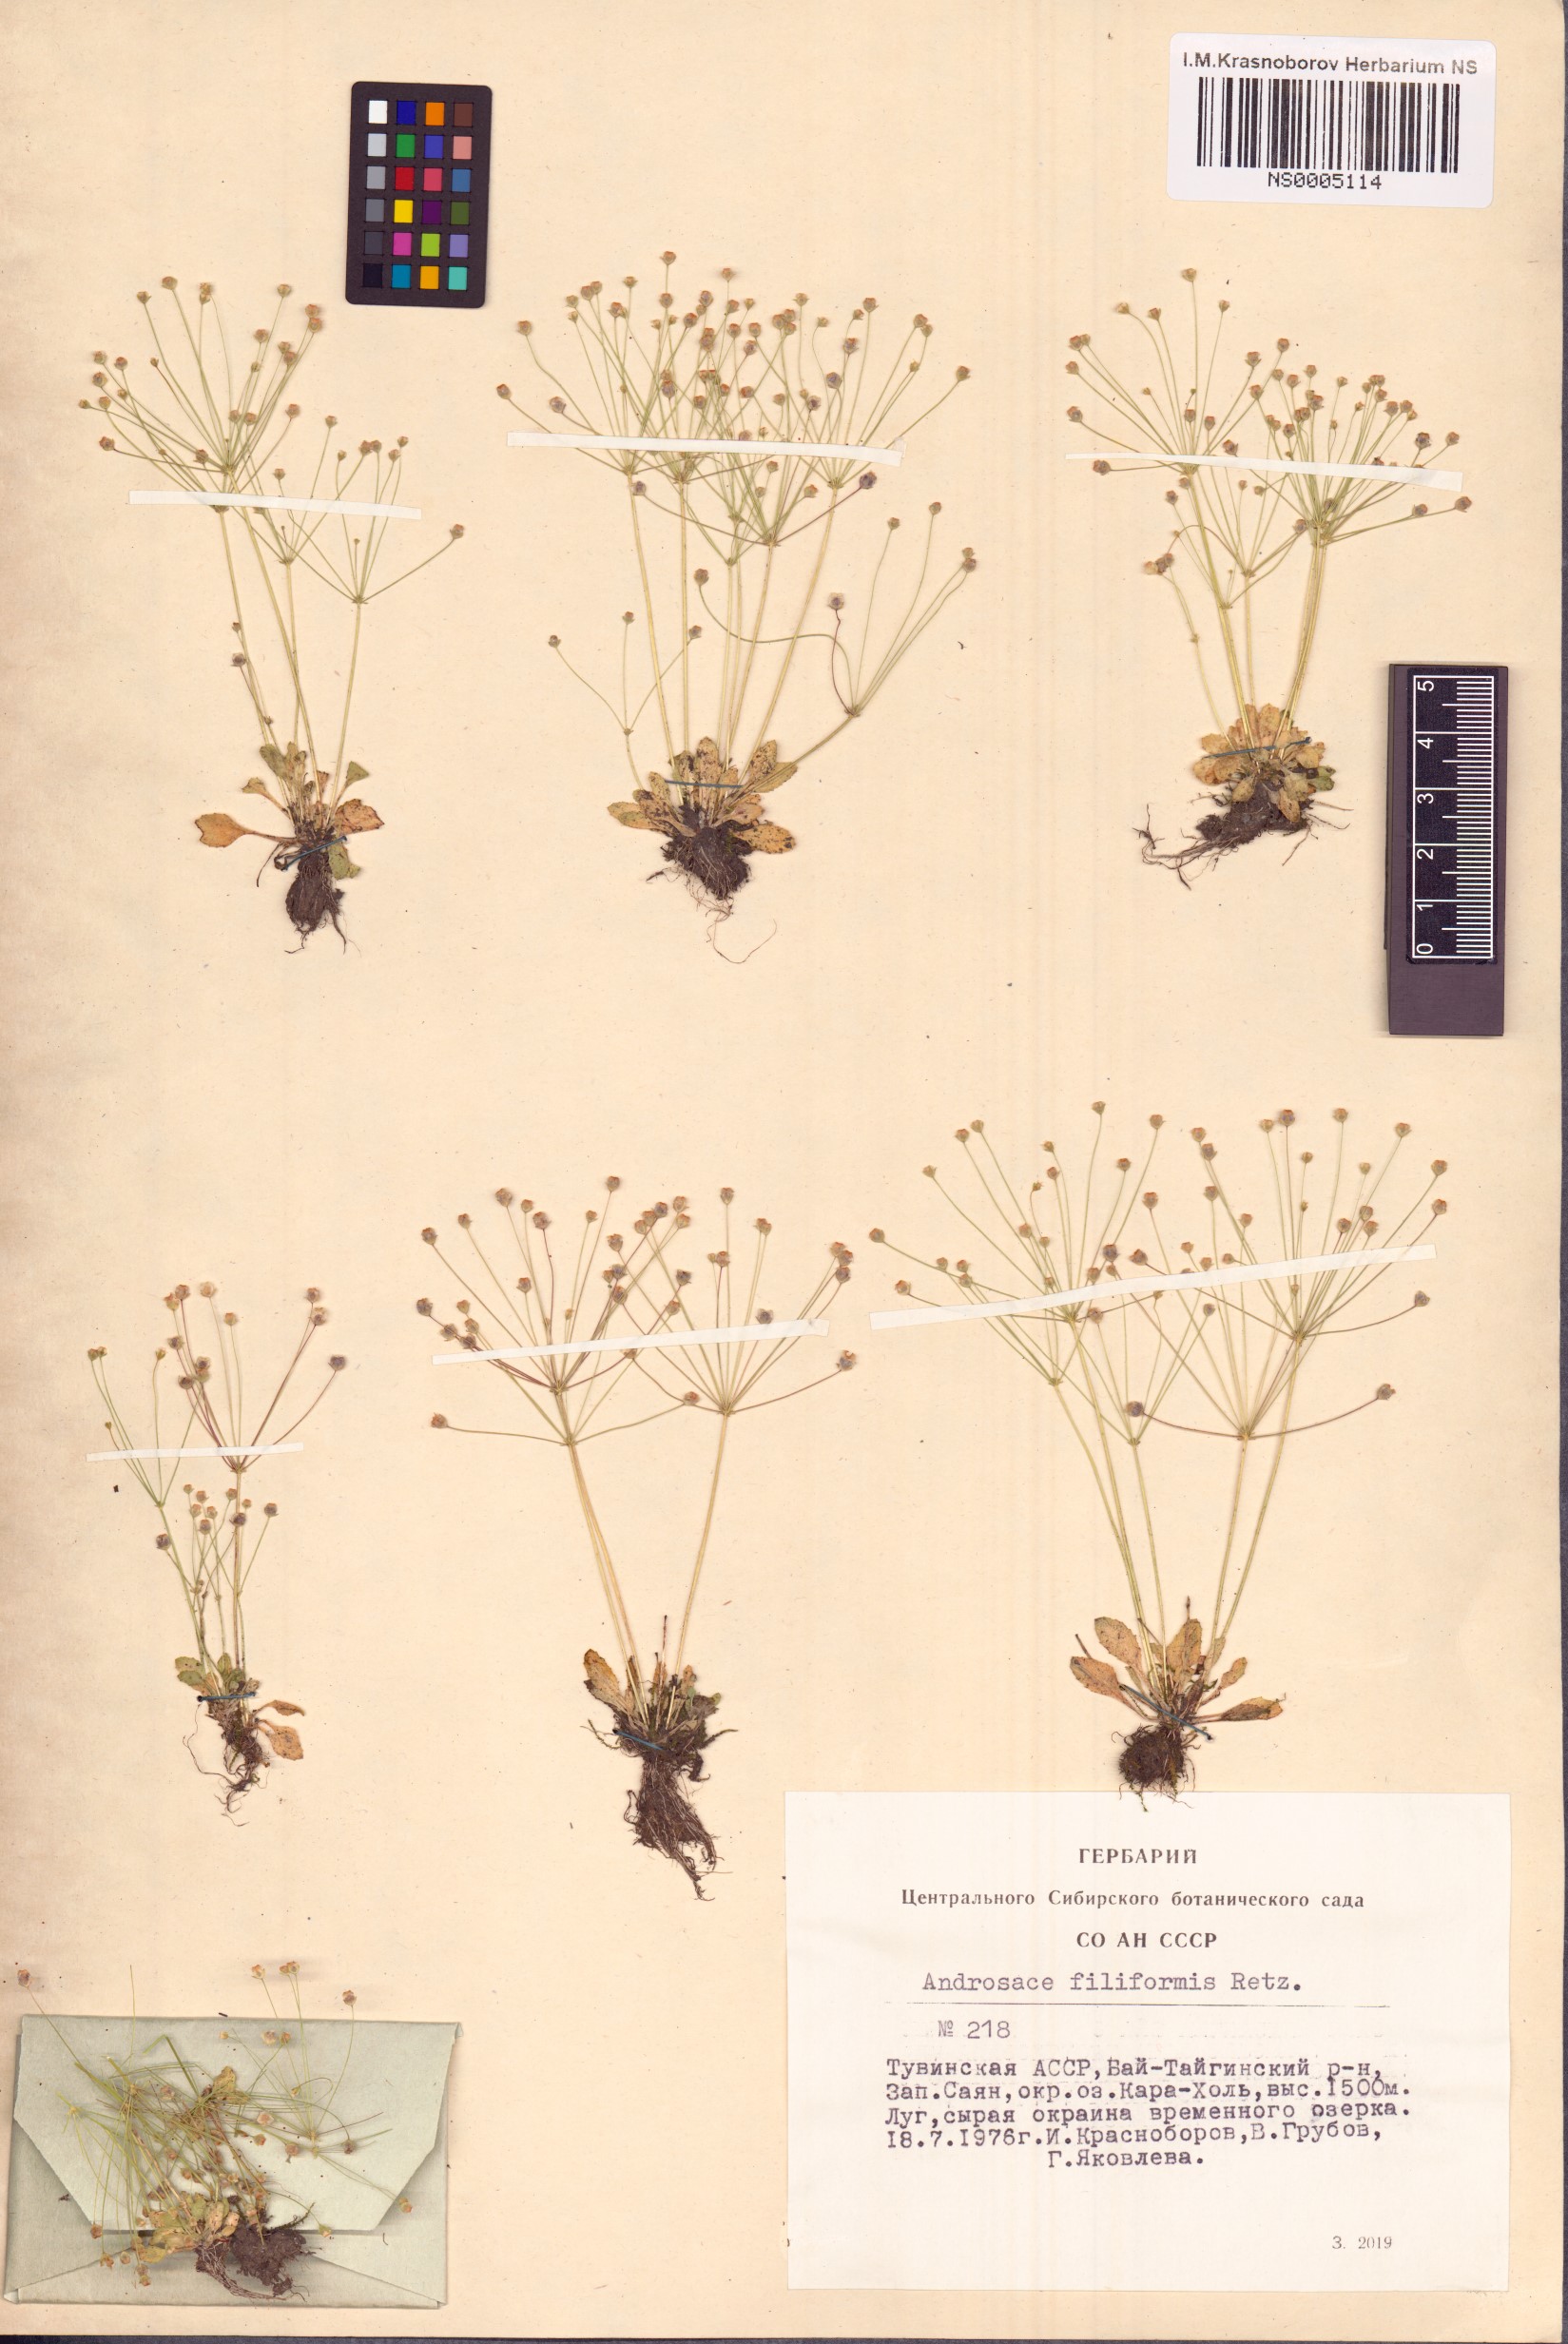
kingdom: Plantae
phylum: Tracheophyta
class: Magnoliopsida
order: Ericales
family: Primulaceae
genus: Androsace
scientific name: Androsace filiformis
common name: Filiform rock jasmine
